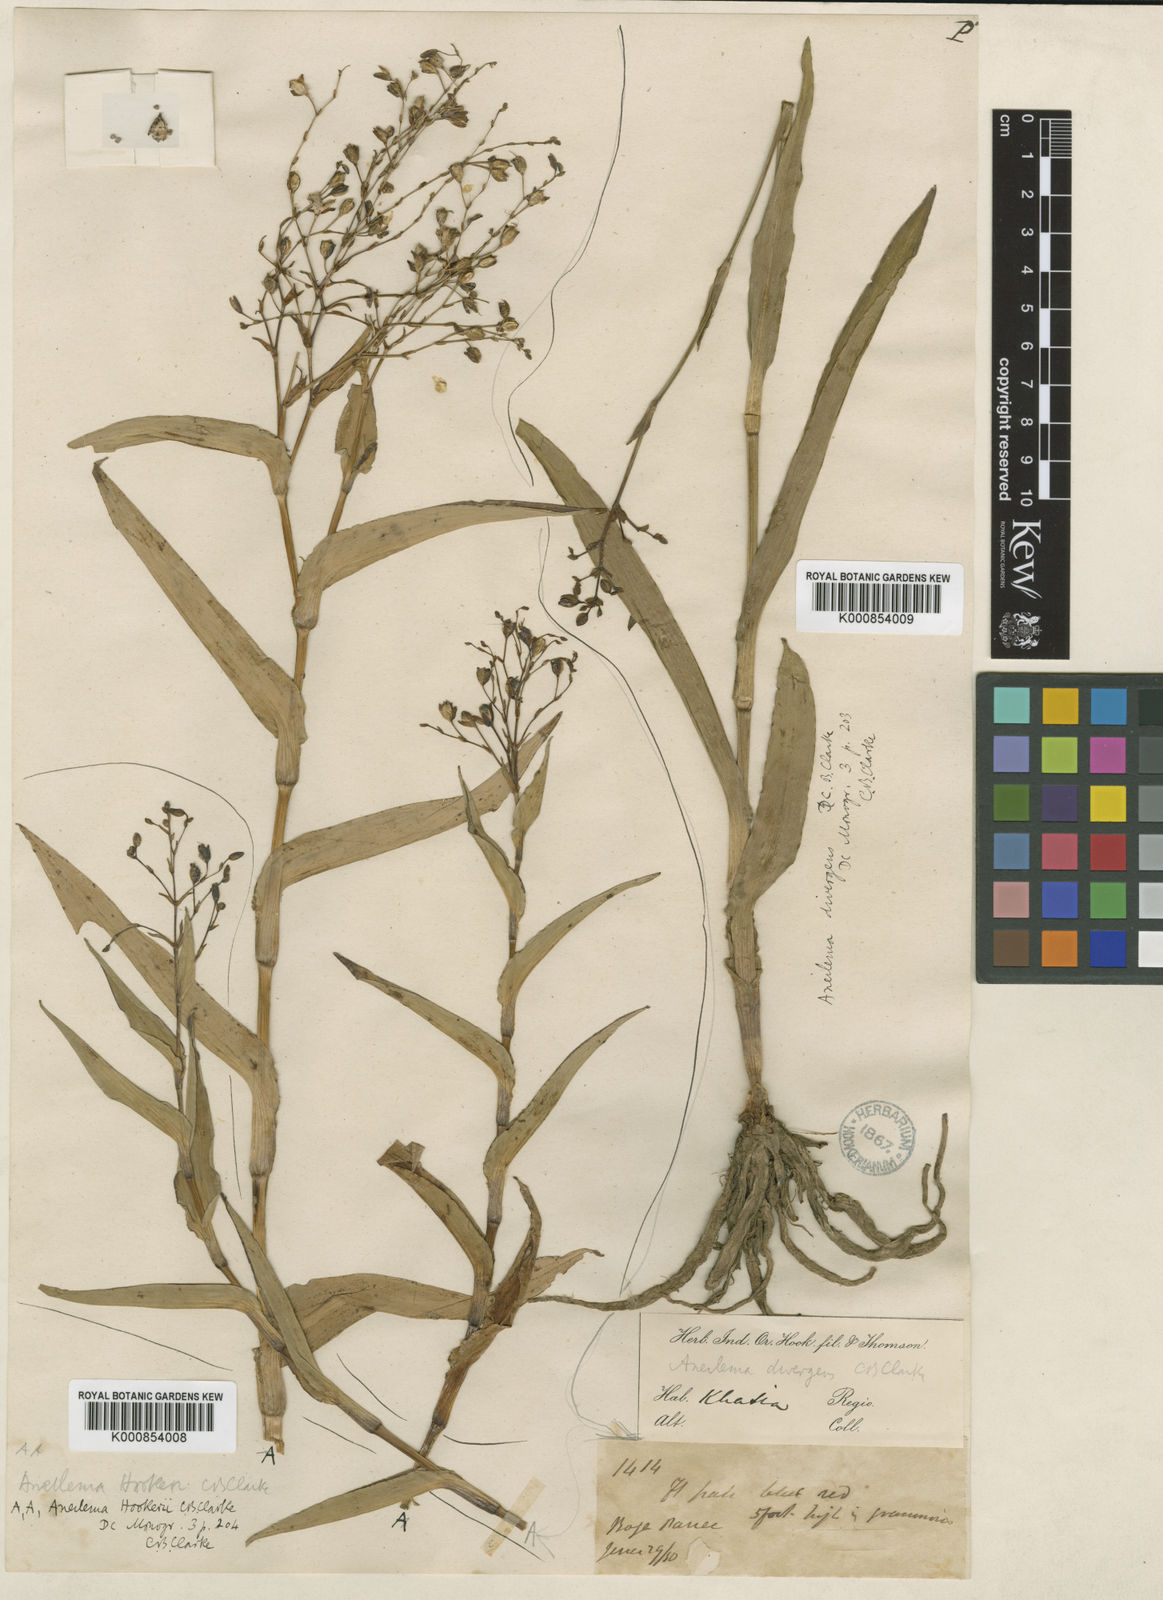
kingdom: Plantae
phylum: Tracheophyta
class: Liliopsida
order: Commelinales
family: Commelinaceae
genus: Murdannia
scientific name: Murdannia
